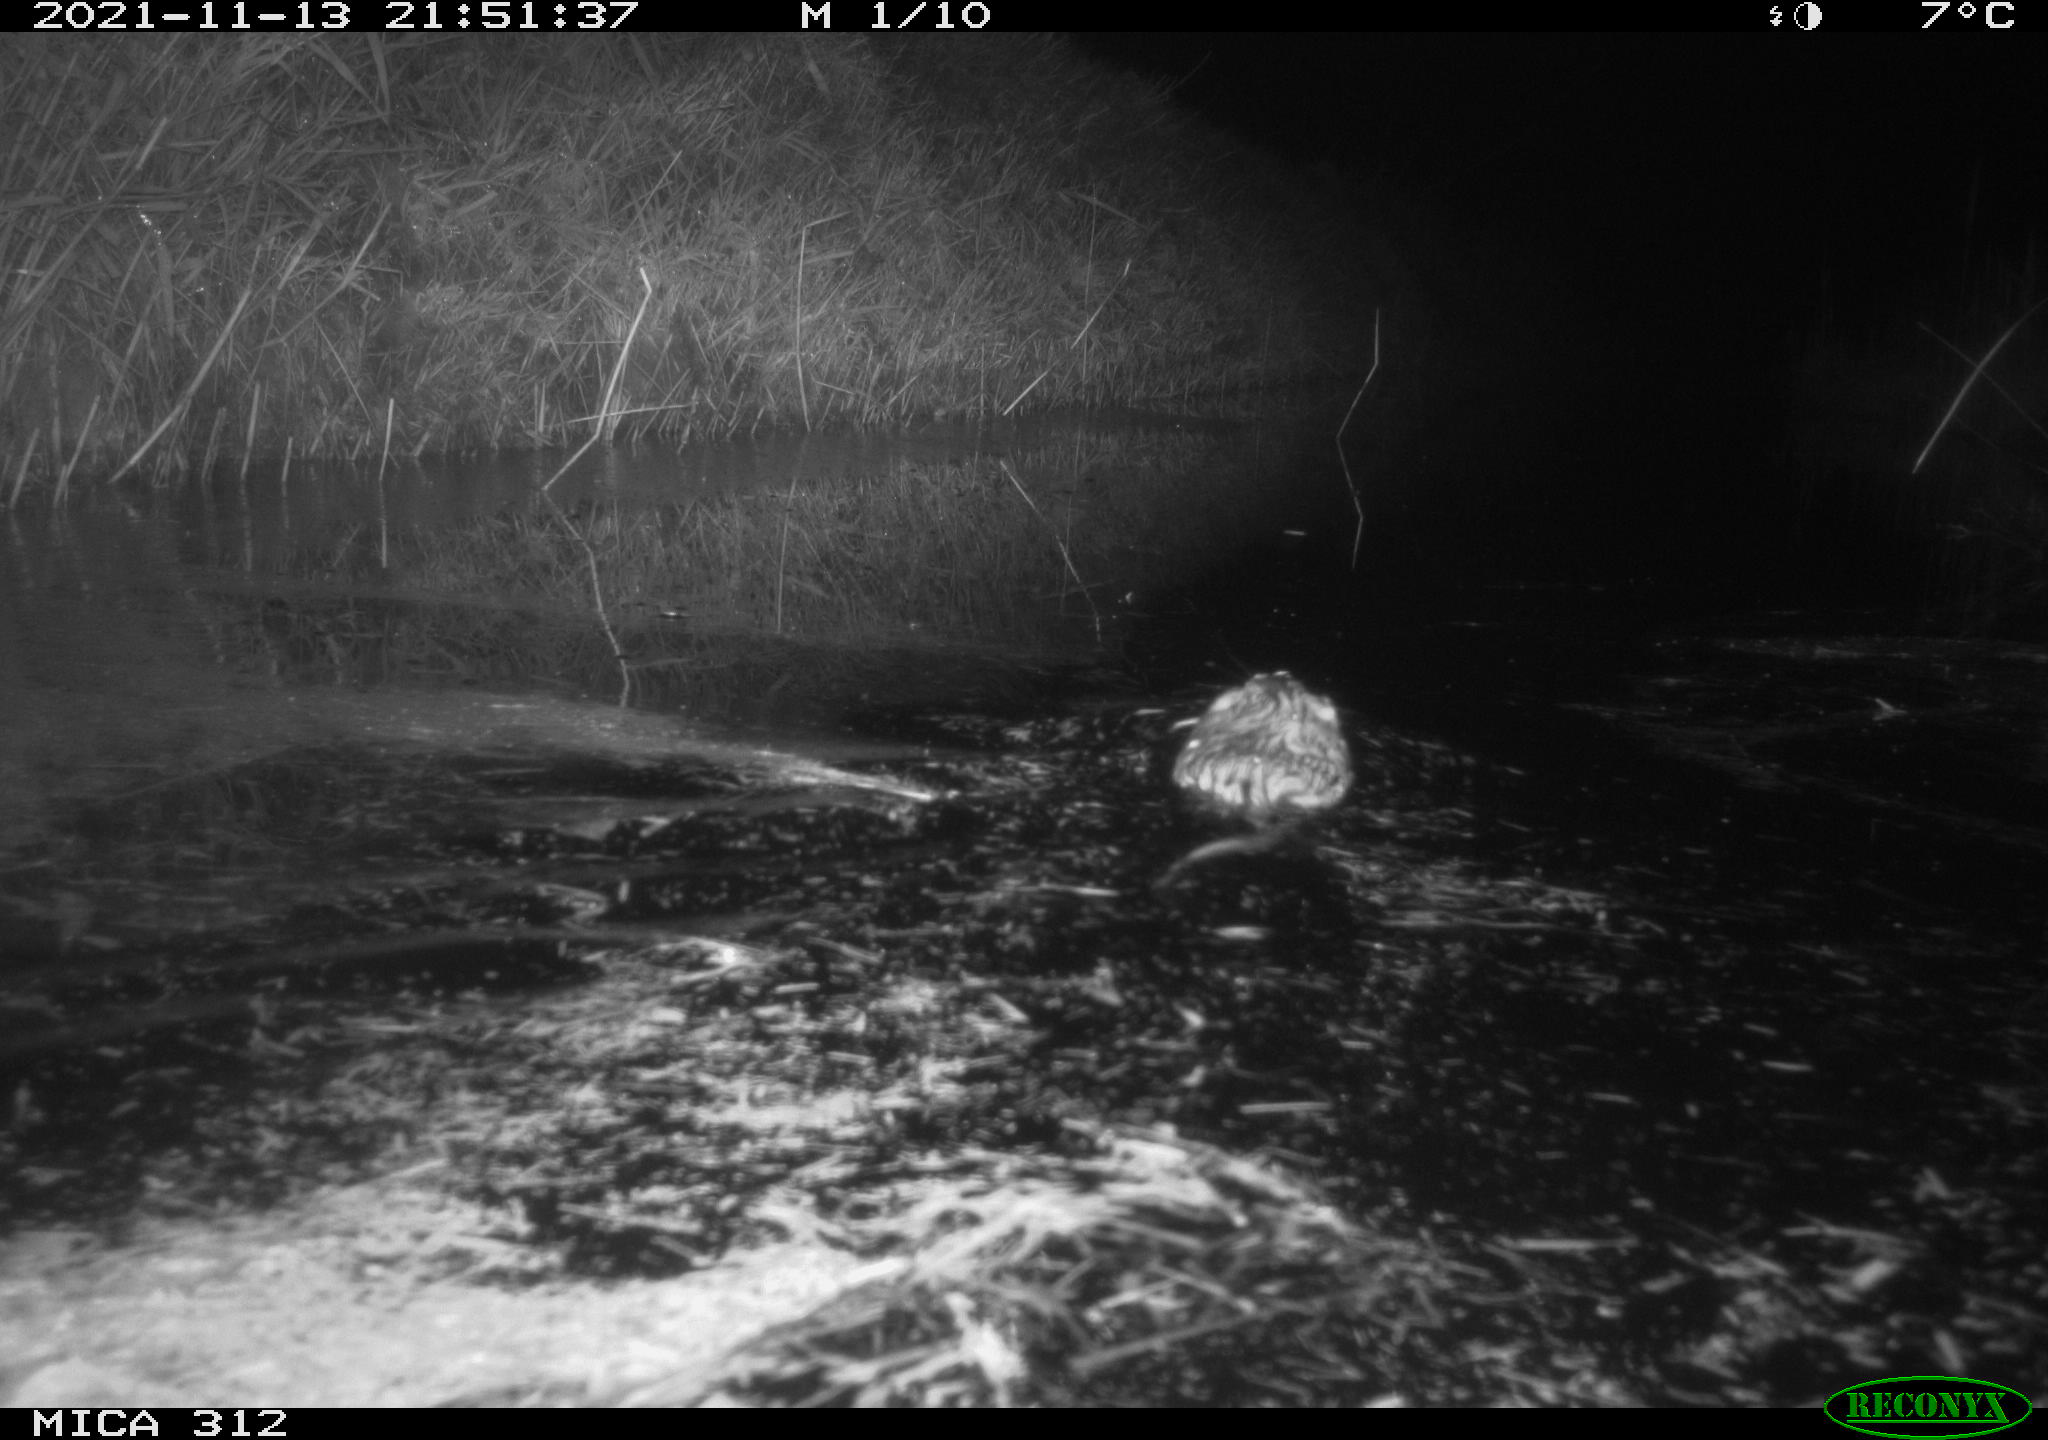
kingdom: Animalia
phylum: Chordata
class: Mammalia
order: Rodentia
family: Cricetidae
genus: Ondatra
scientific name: Ondatra zibethicus
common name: Muskrat
